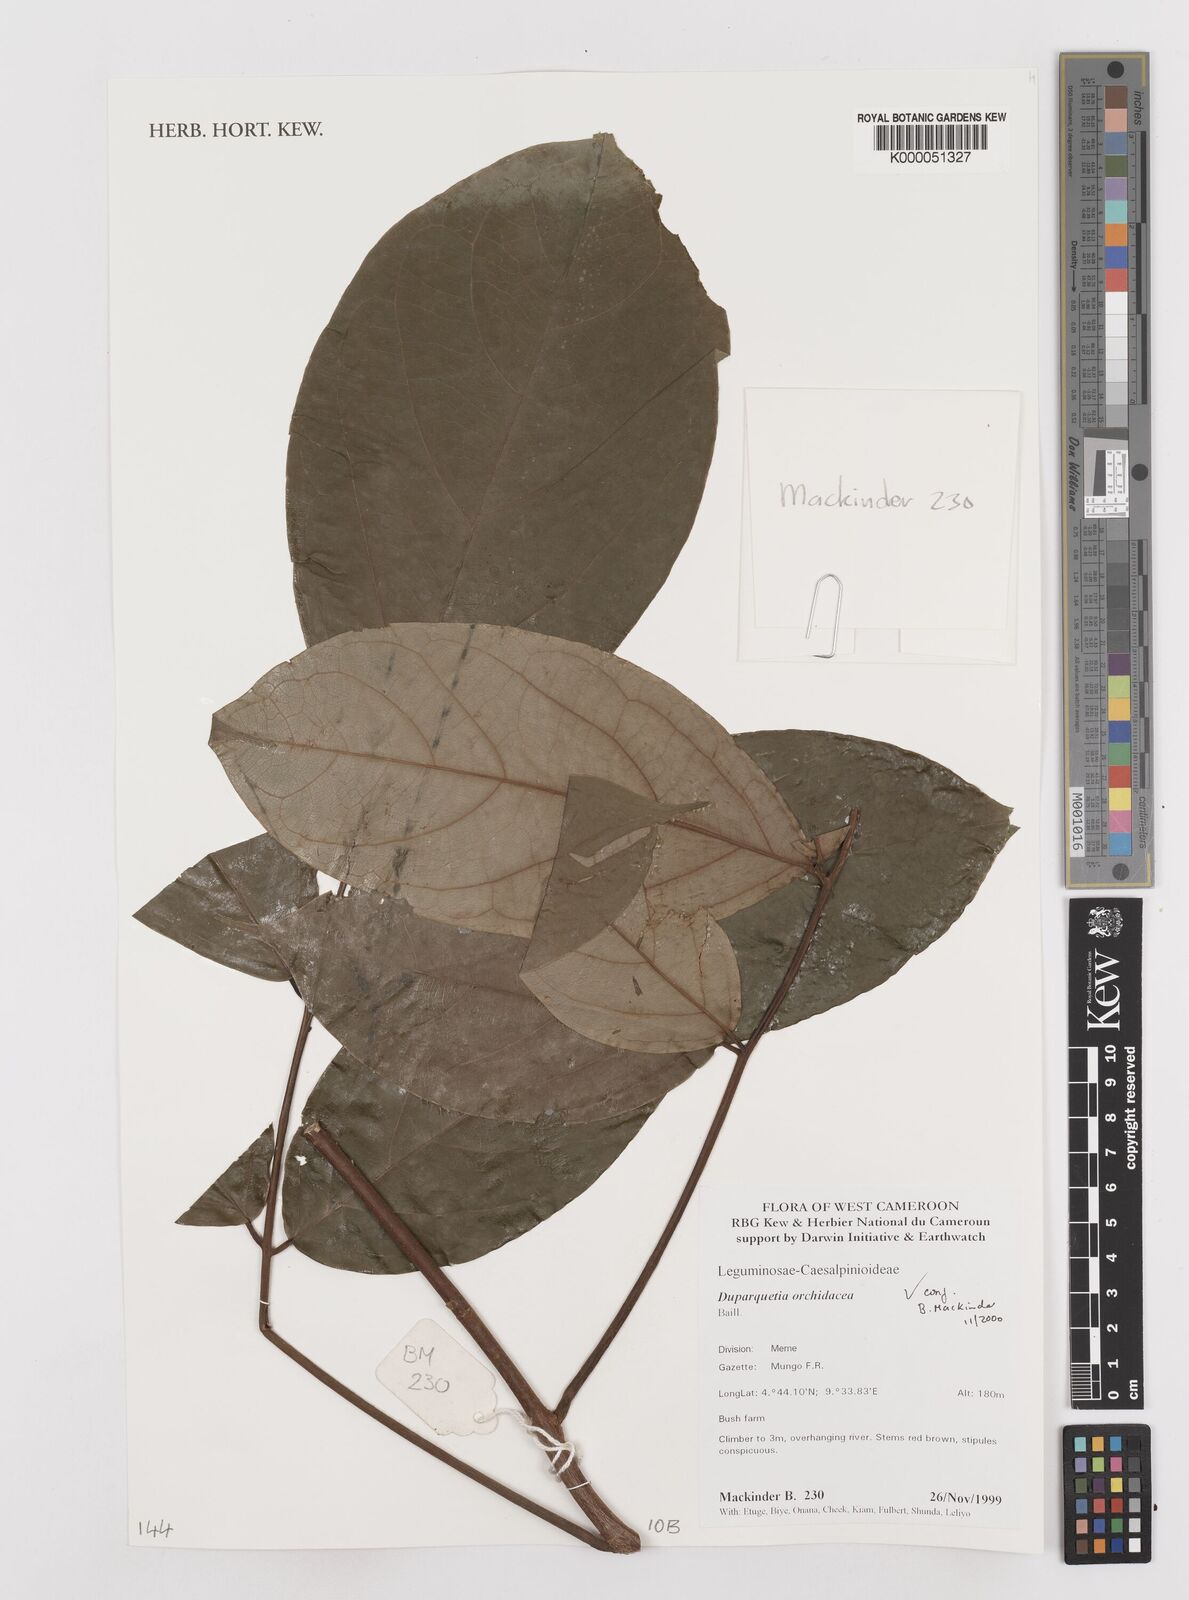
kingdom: Plantae
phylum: Tracheophyta
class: Magnoliopsida
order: Fabales
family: Fabaceae
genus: Duparquetia
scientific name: Duparquetia orchidacea
